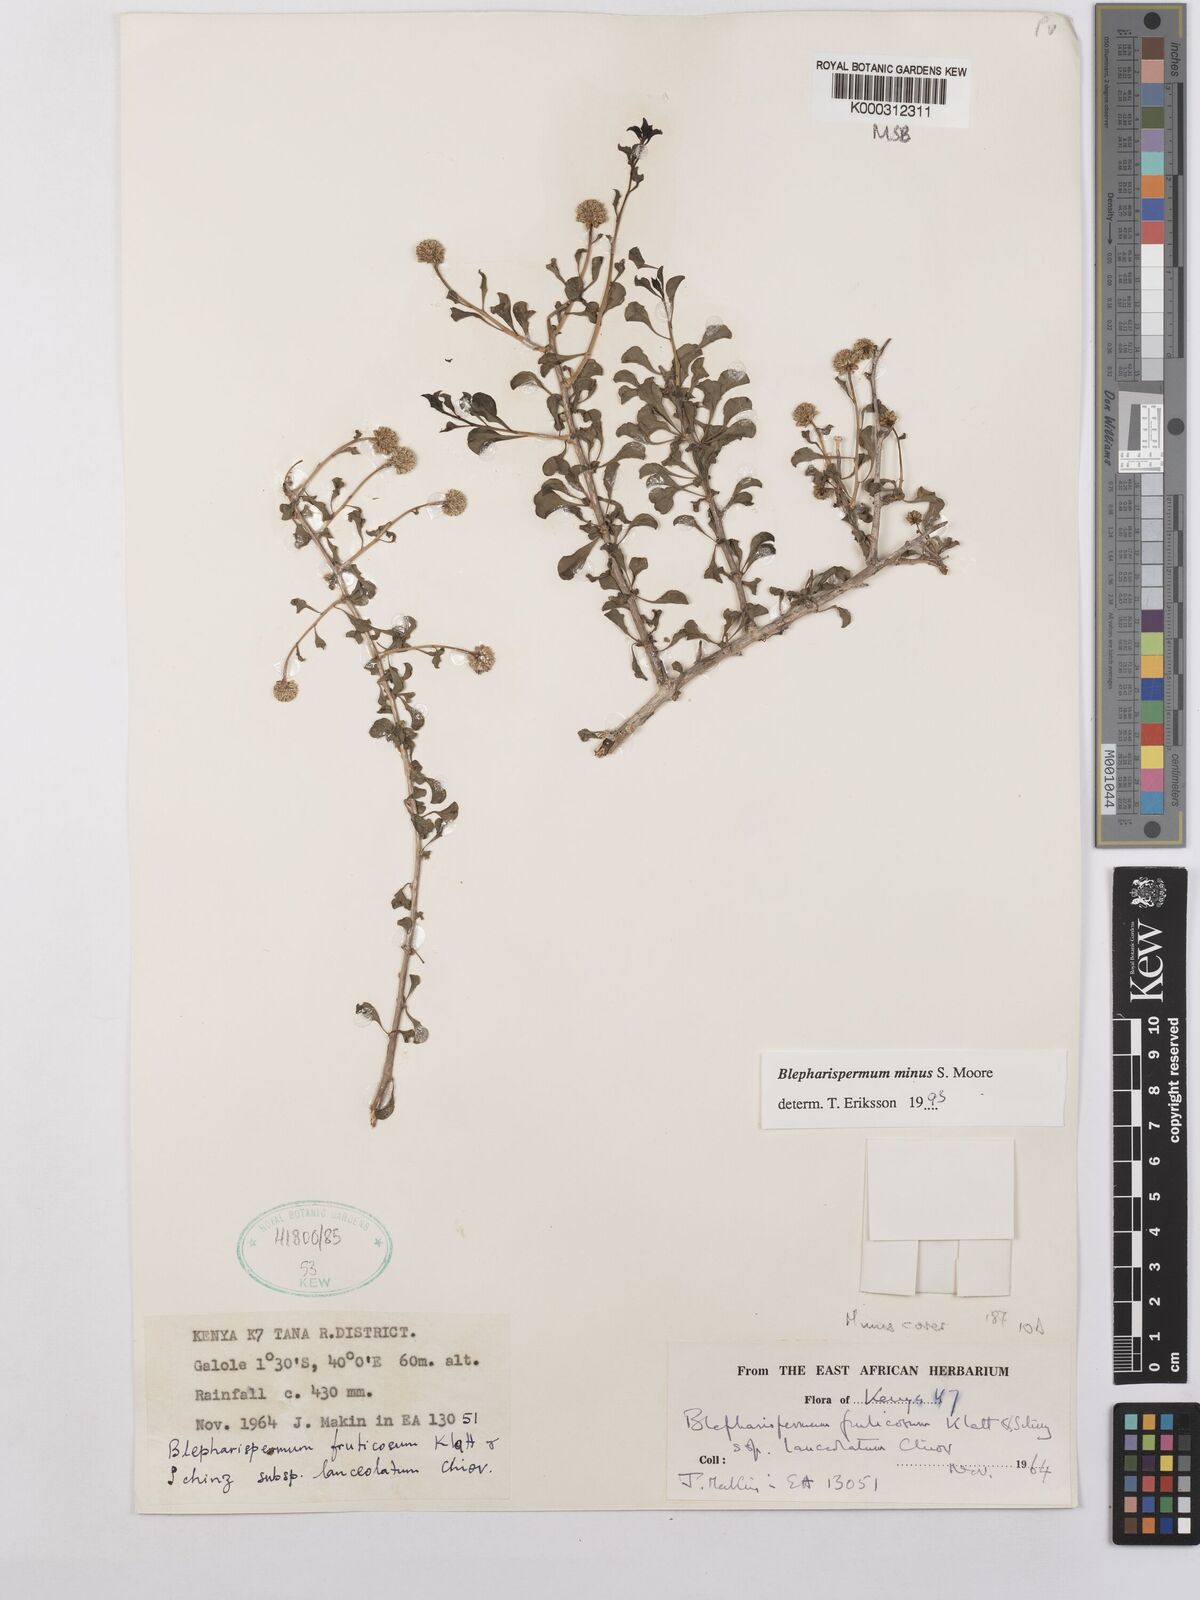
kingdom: Plantae
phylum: Tracheophyta
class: Magnoliopsida
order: Asterales
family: Asteraceae
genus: Blepharispermum
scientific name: Blepharispermum minus
